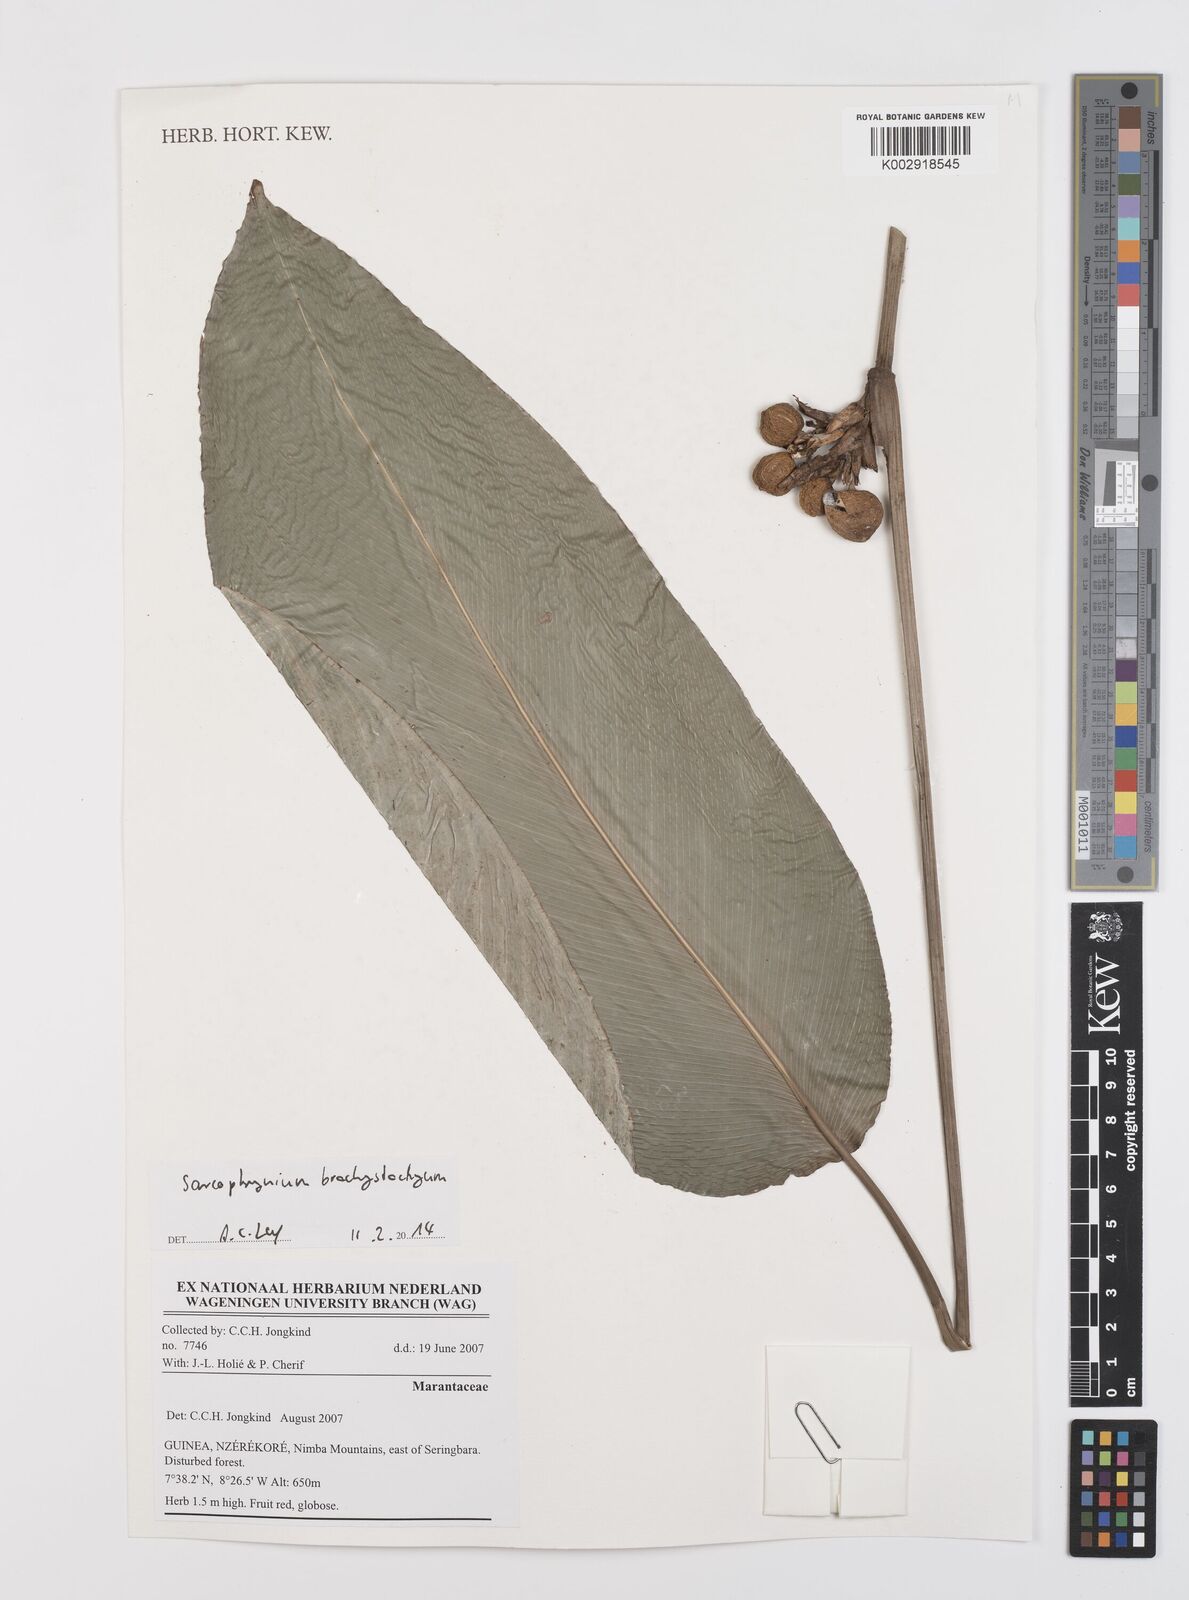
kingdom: Plantae
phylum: Tracheophyta
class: Liliopsida
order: Zingiberales
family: Marantaceae
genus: Sarcophrynium
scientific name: Sarcophrynium brachystachyum
